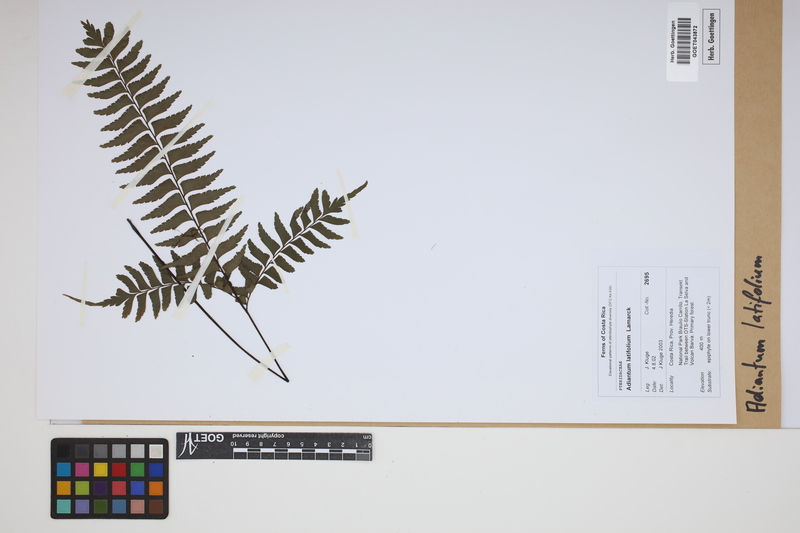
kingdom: Plantae
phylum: Tracheophyta
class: Polypodiopsida
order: Polypodiales
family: Pteridaceae
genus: Adiantum
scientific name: Adiantum latifolium
